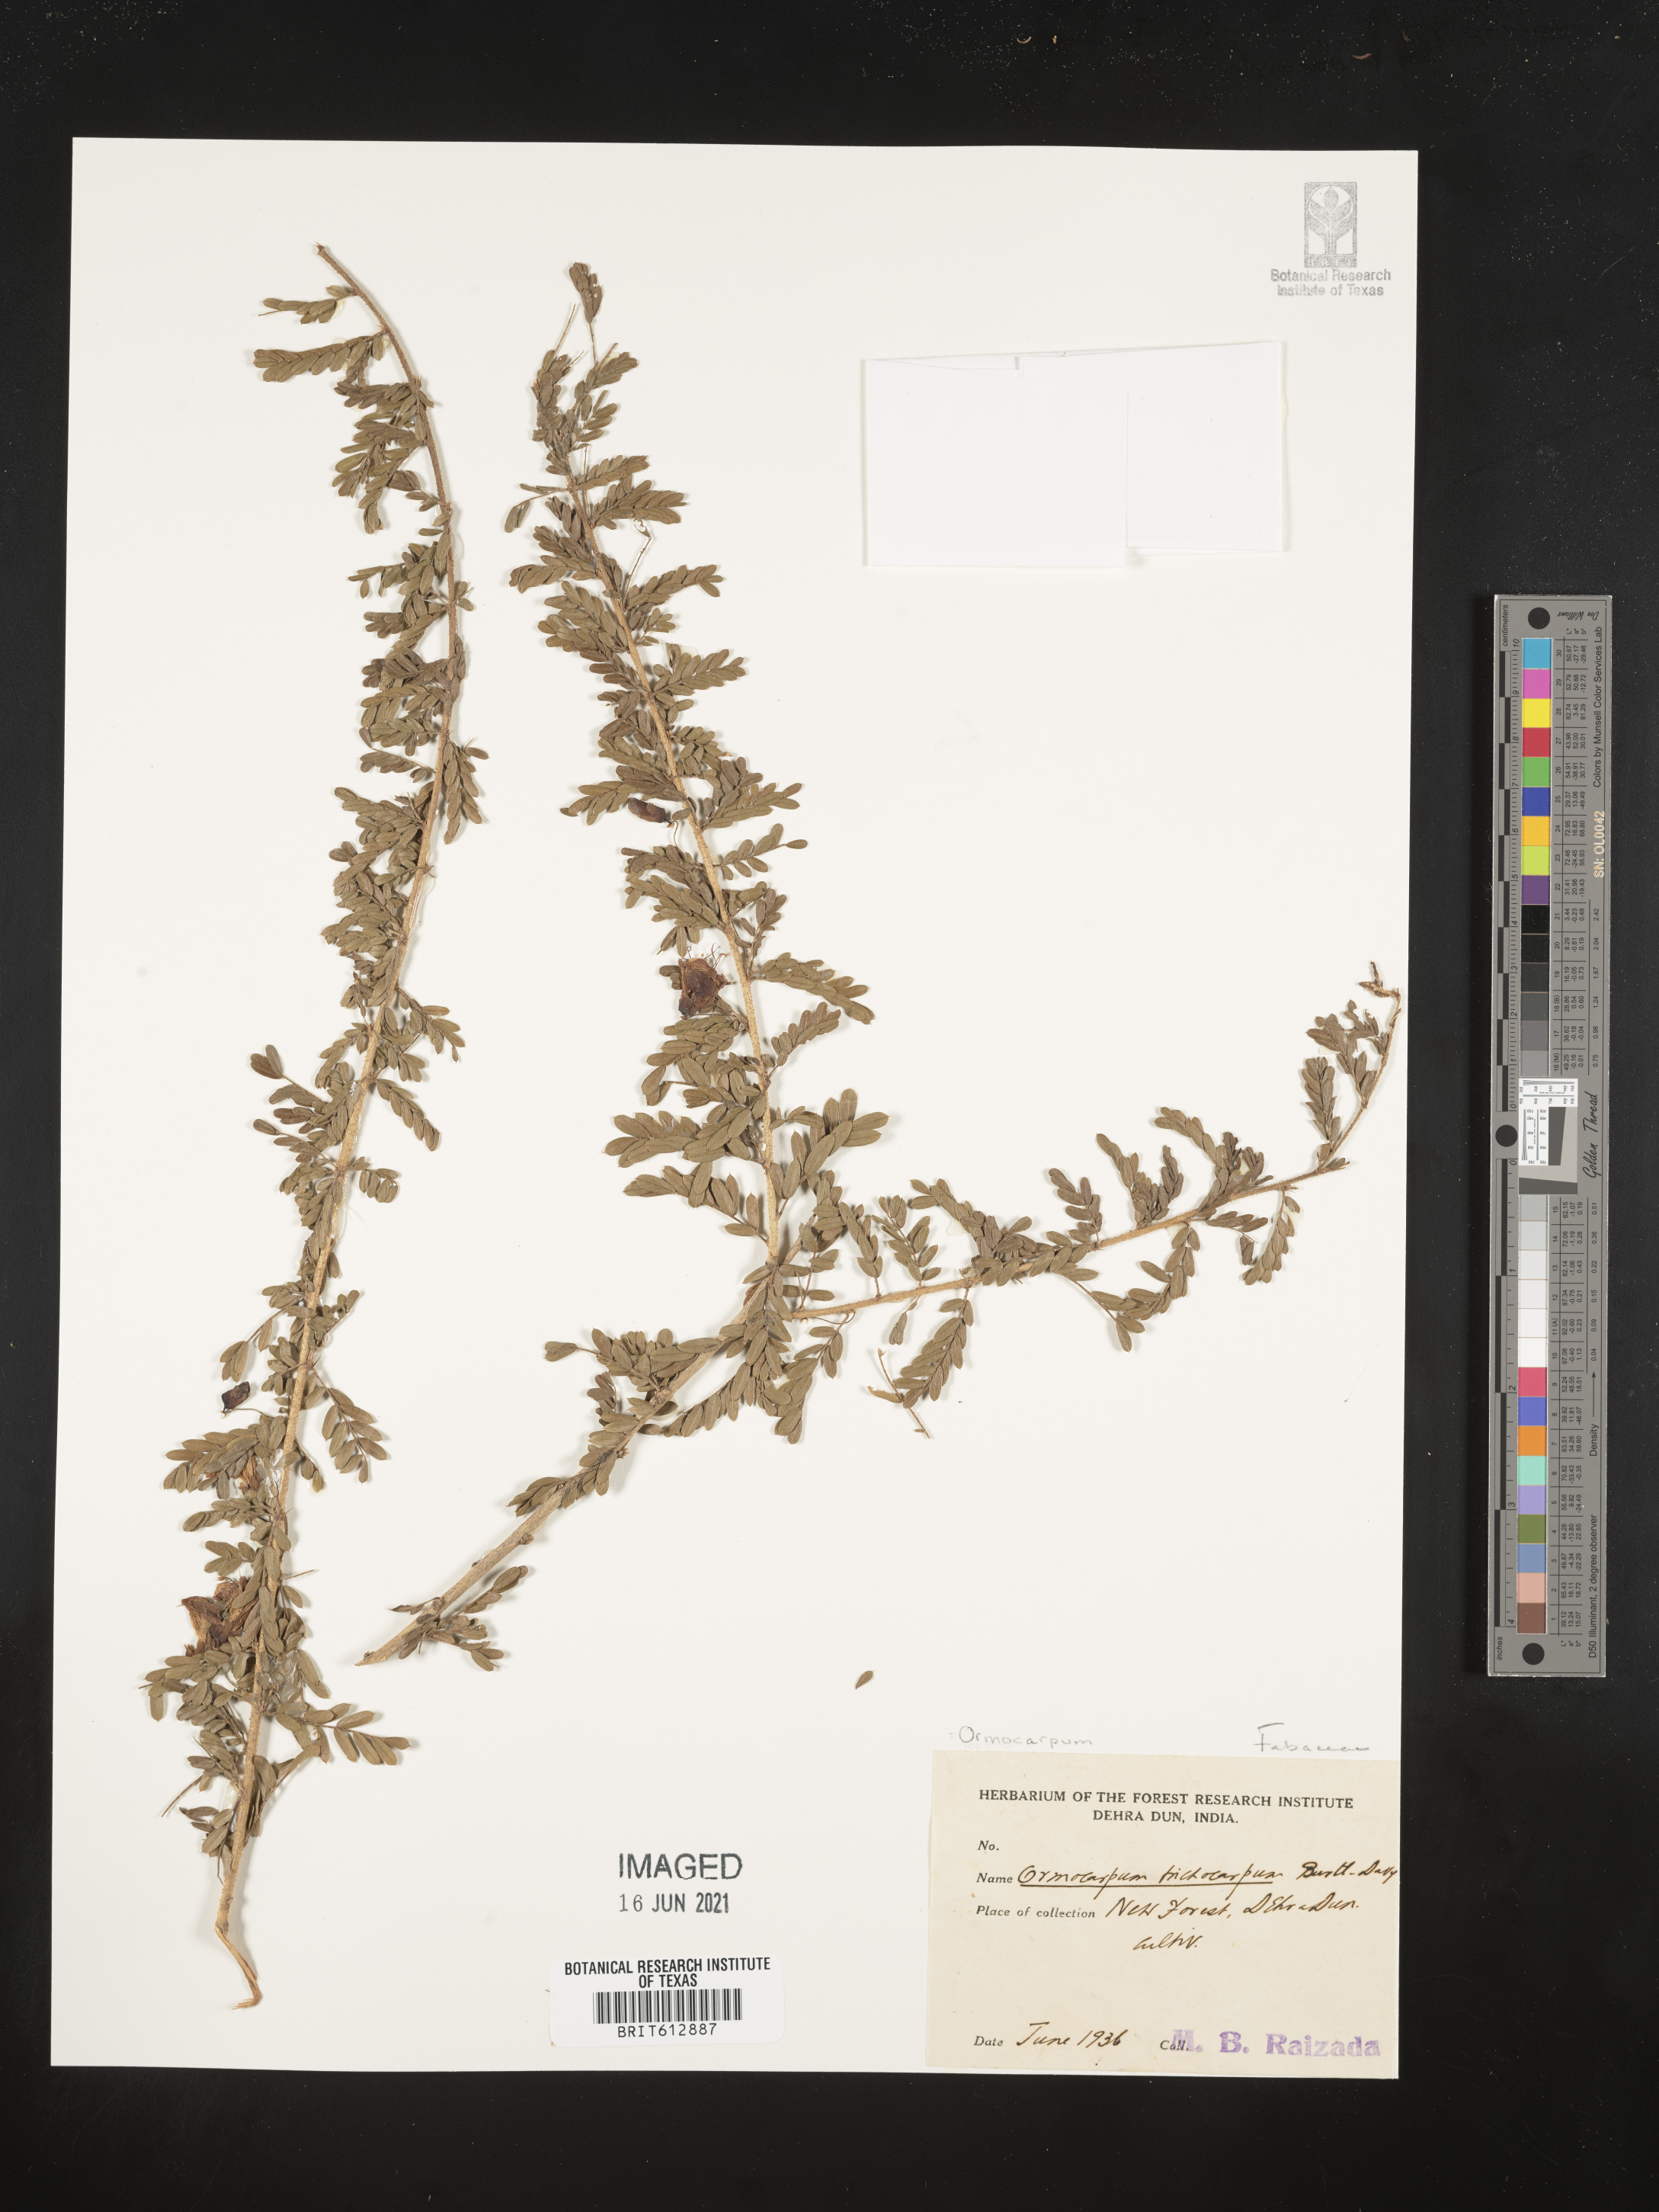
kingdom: Plantae
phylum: Tracheophyta
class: Magnoliopsida
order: Fabales
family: Fabaceae
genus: Ormocarpum
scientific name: Ormocarpum trichocarpum
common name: Caterpillar bush
